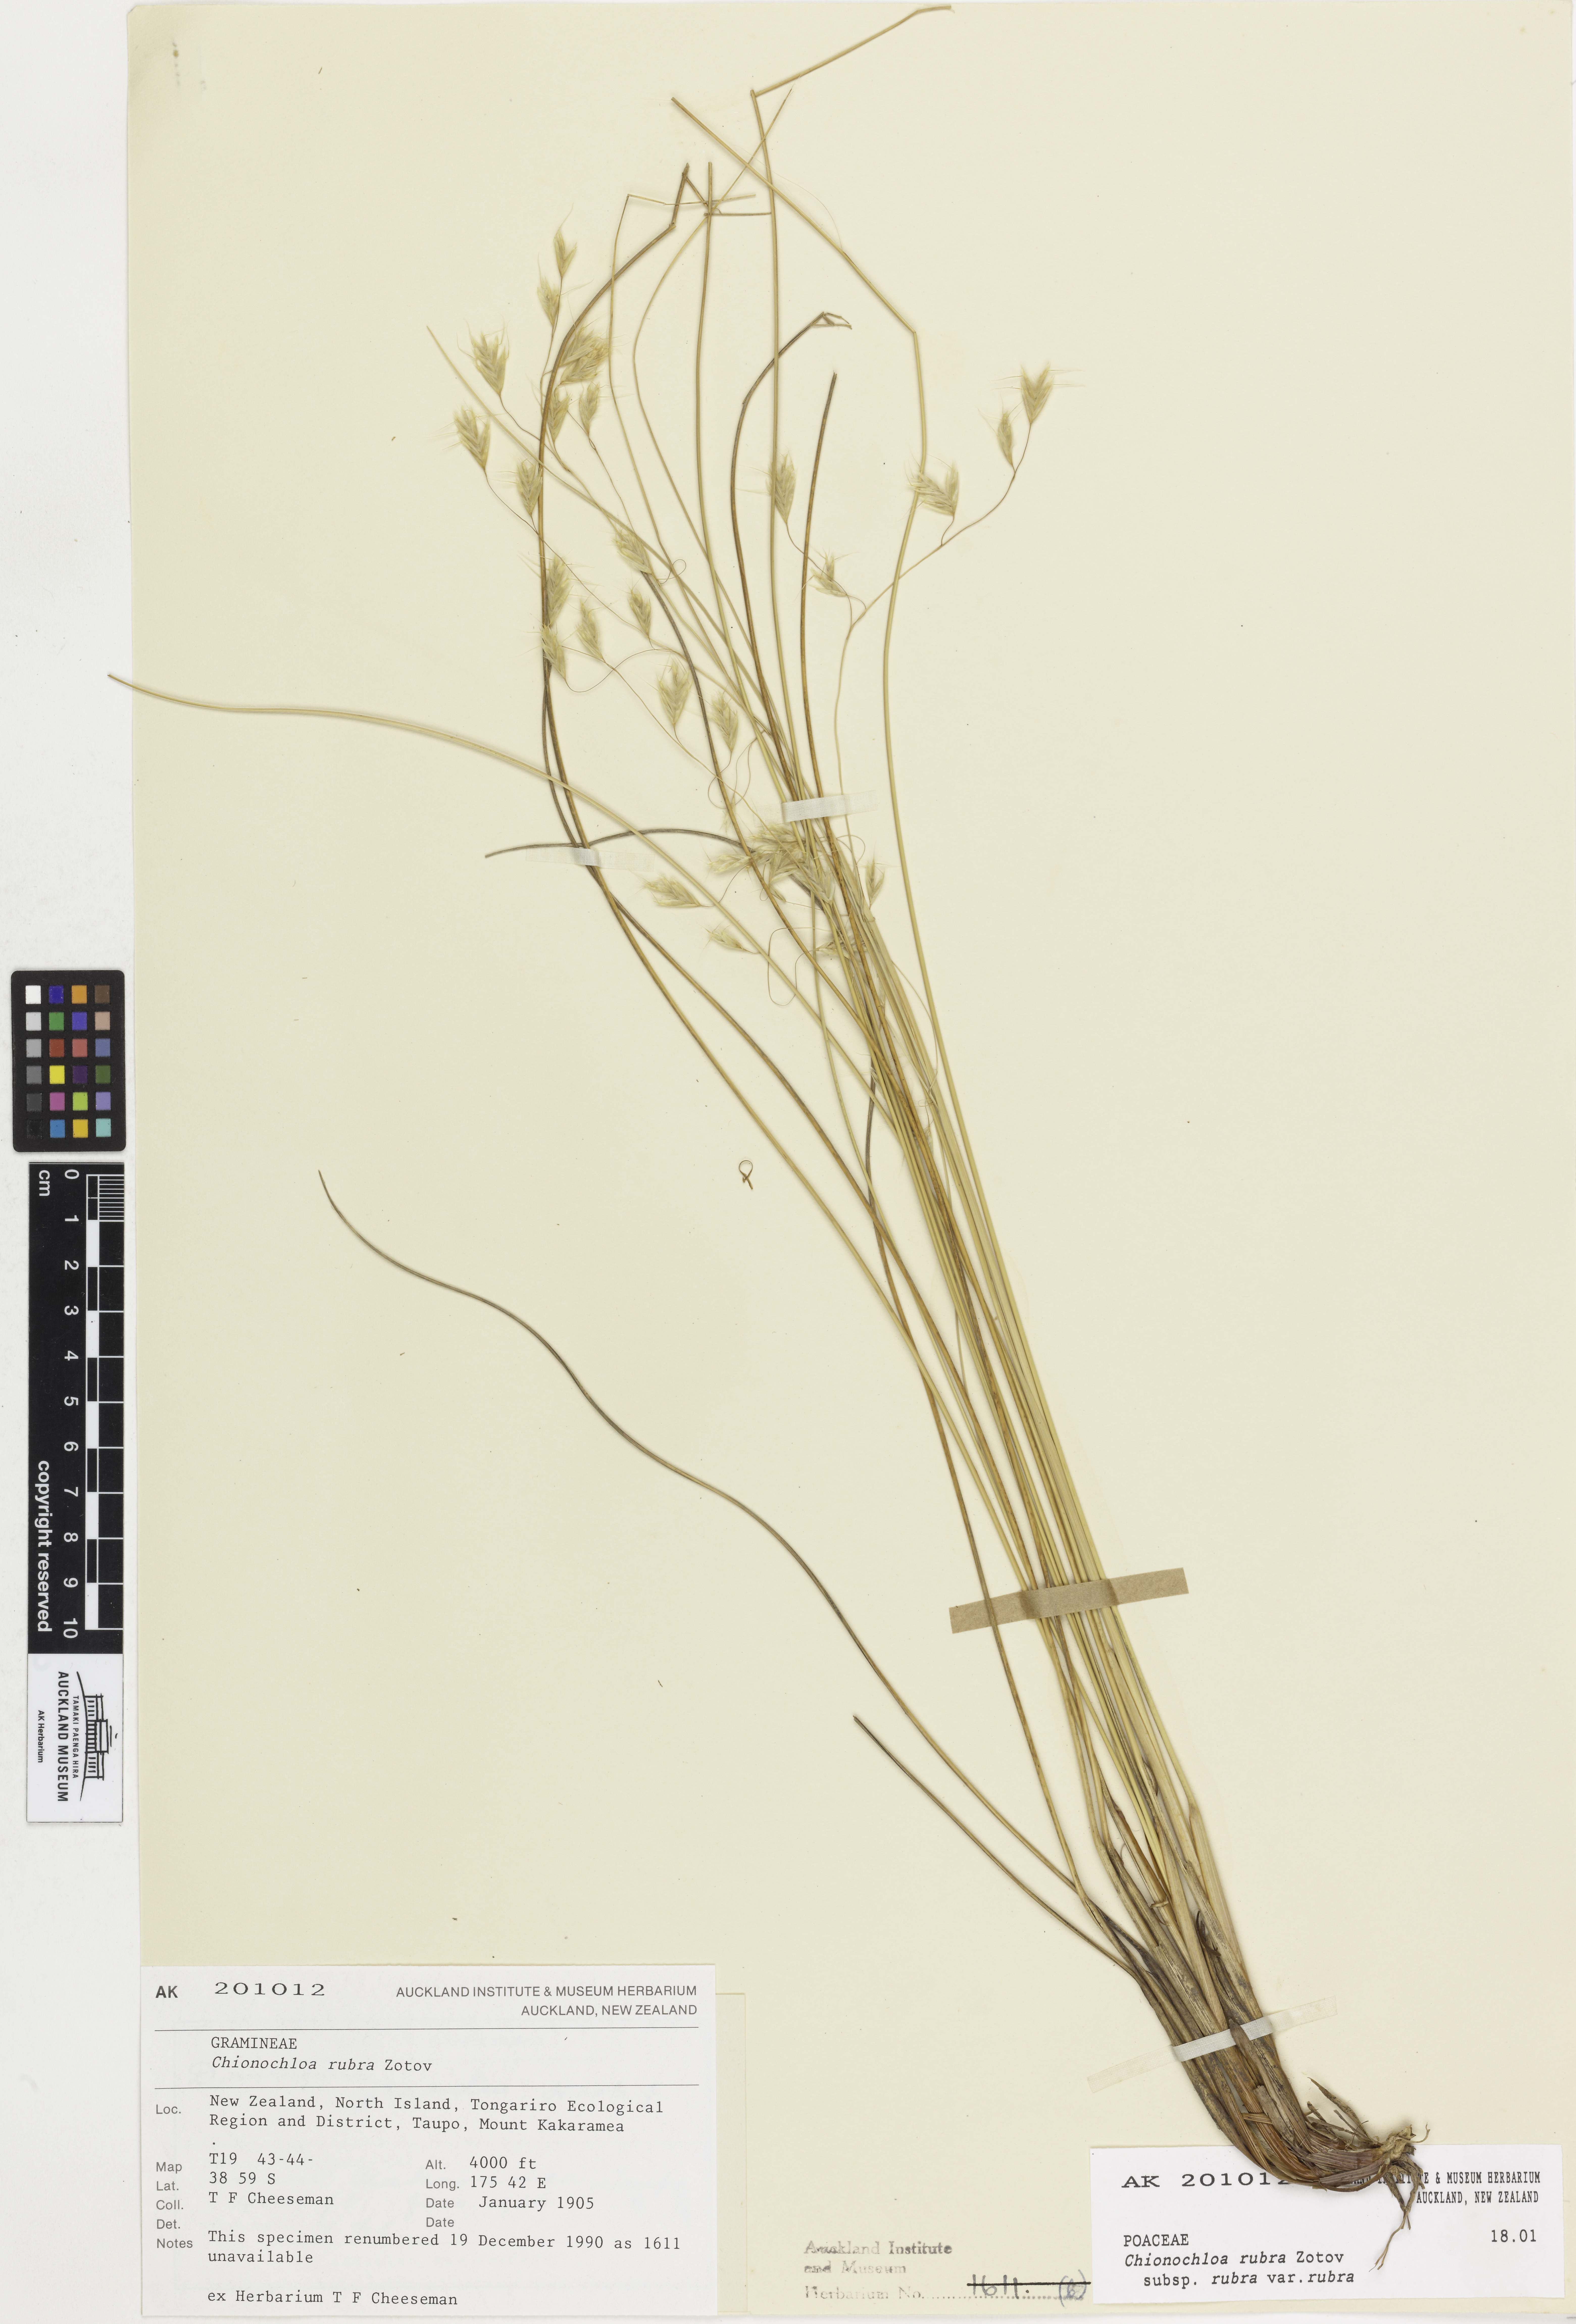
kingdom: Plantae
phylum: Tracheophyta
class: Liliopsida
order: Poales
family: Poaceae
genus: Chionochloa
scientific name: Chionochloa rubra
